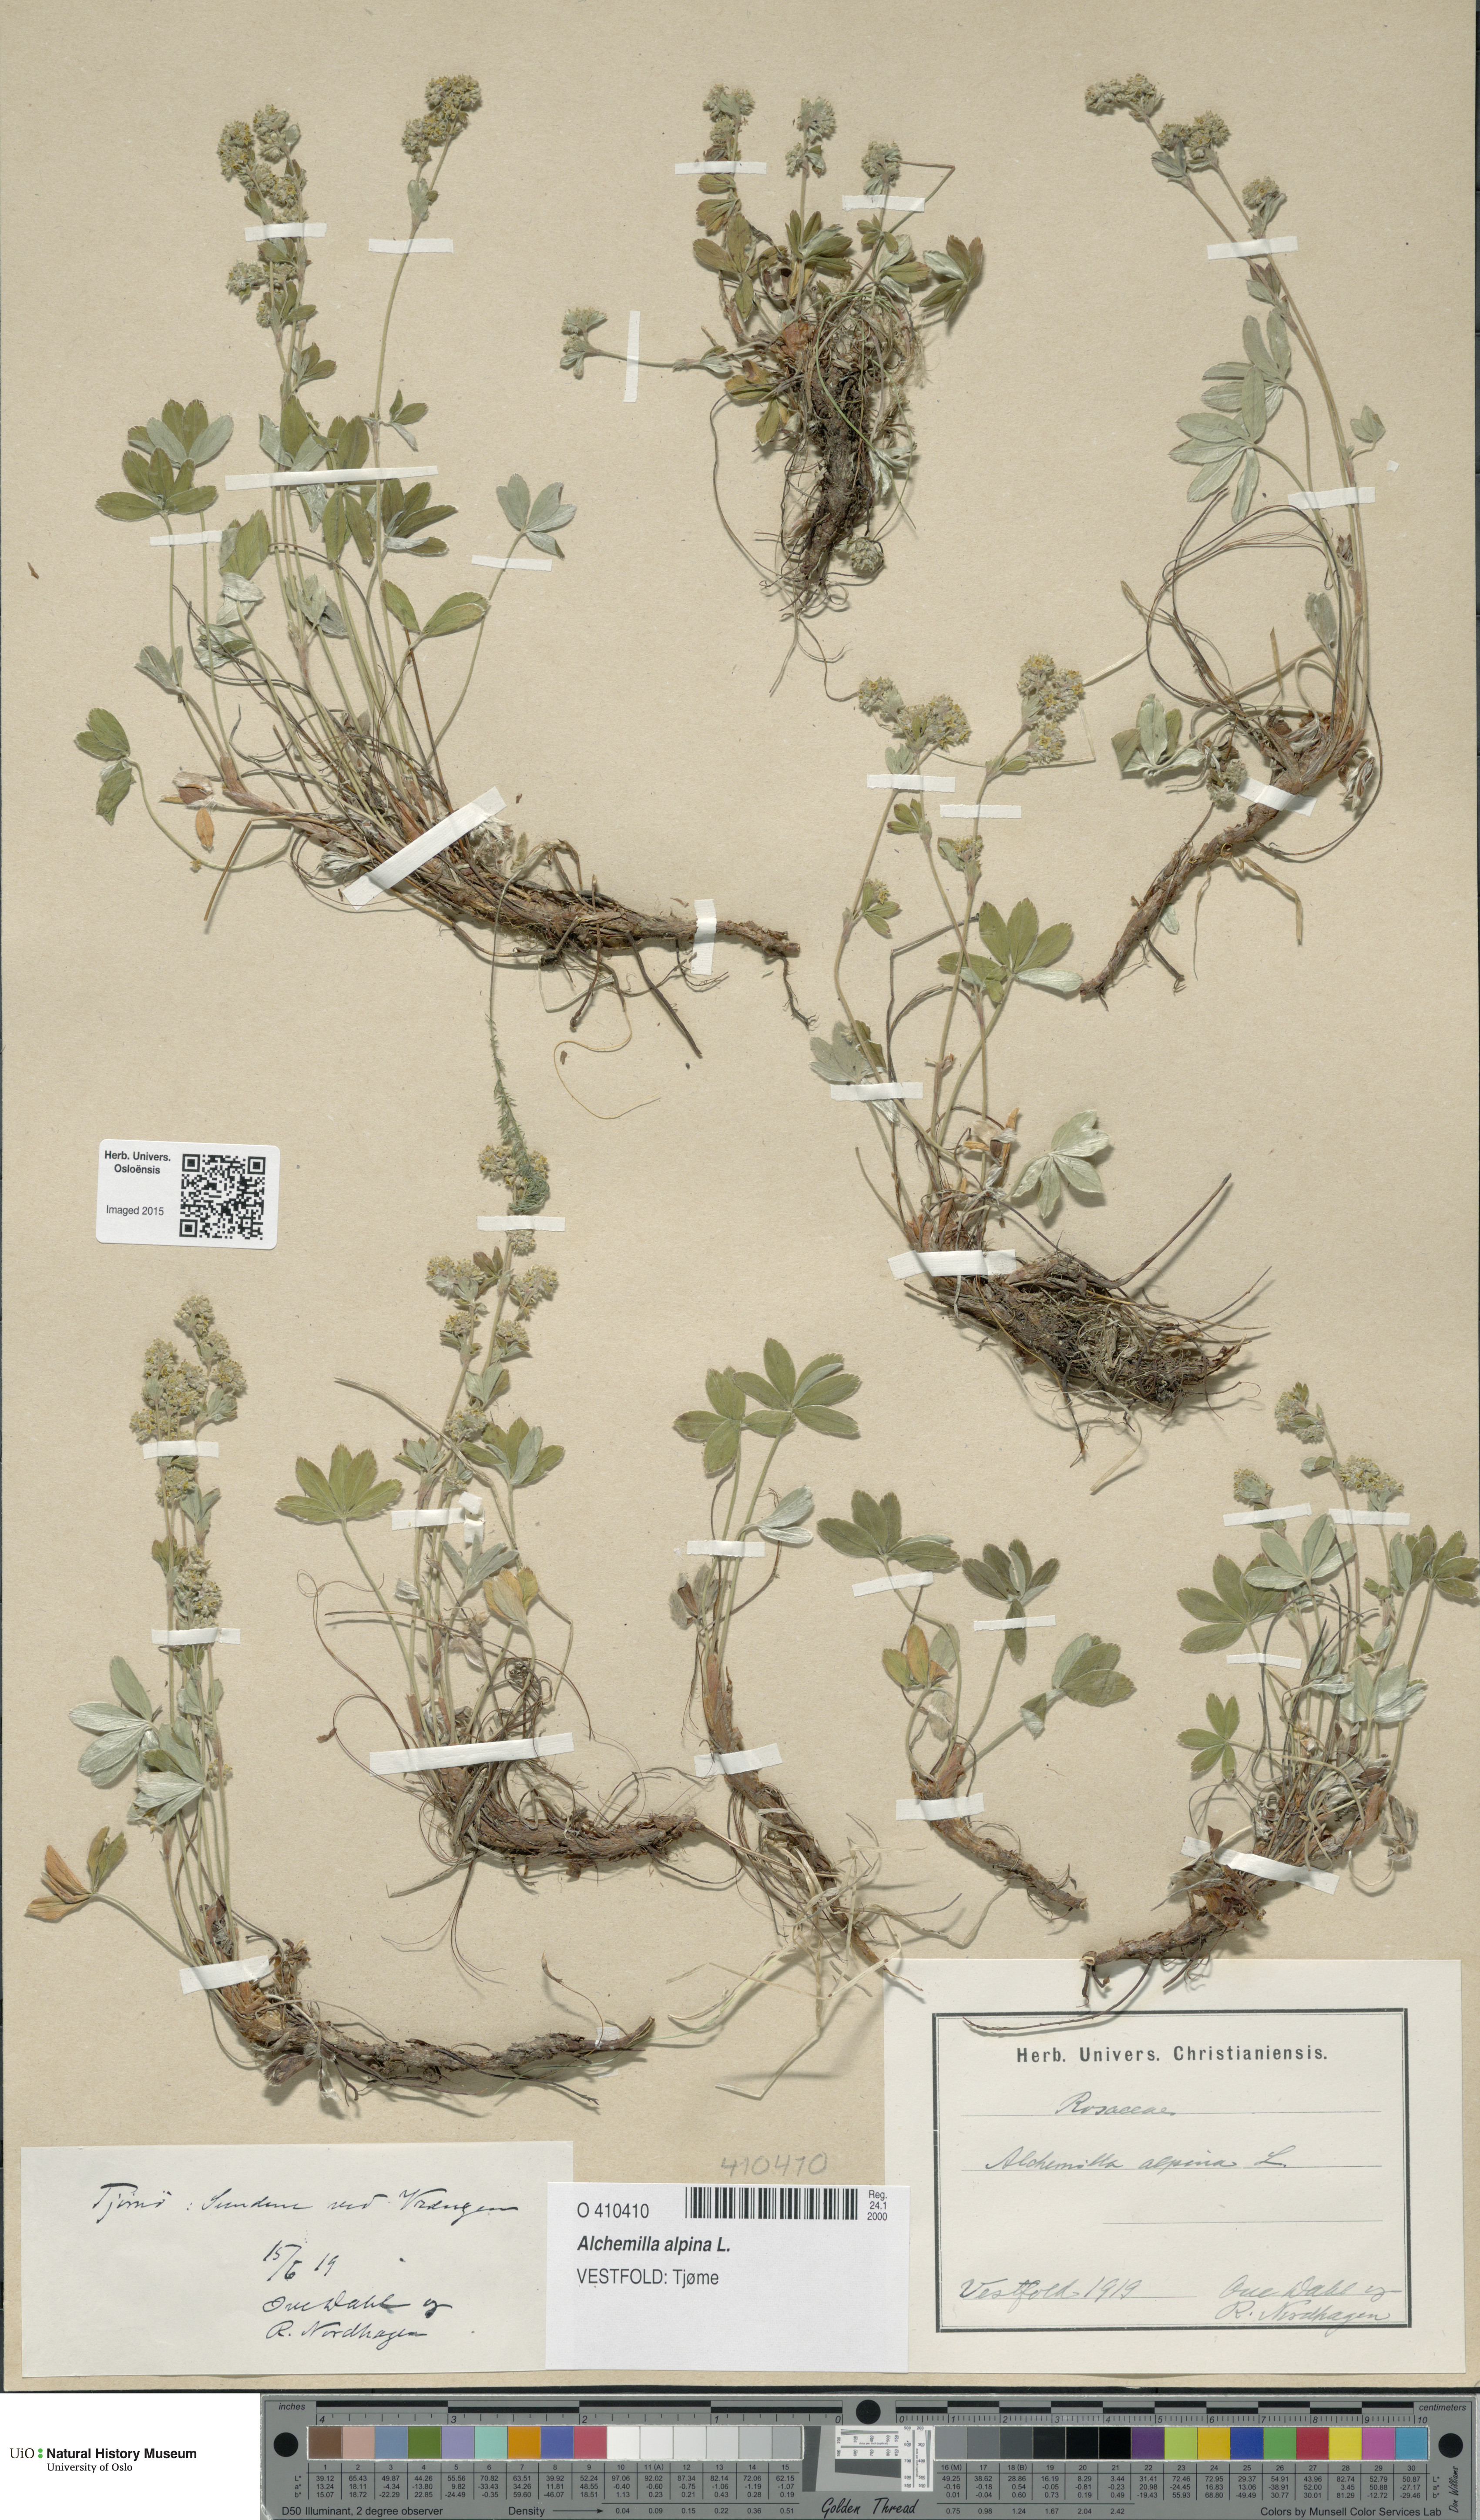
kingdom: Plantae
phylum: Tracheophyta
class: Magnoliopsida
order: Rosales
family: Rosaceae
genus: Alchemilla
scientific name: Alchemilla alpina
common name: Alpine lady's-mantle
